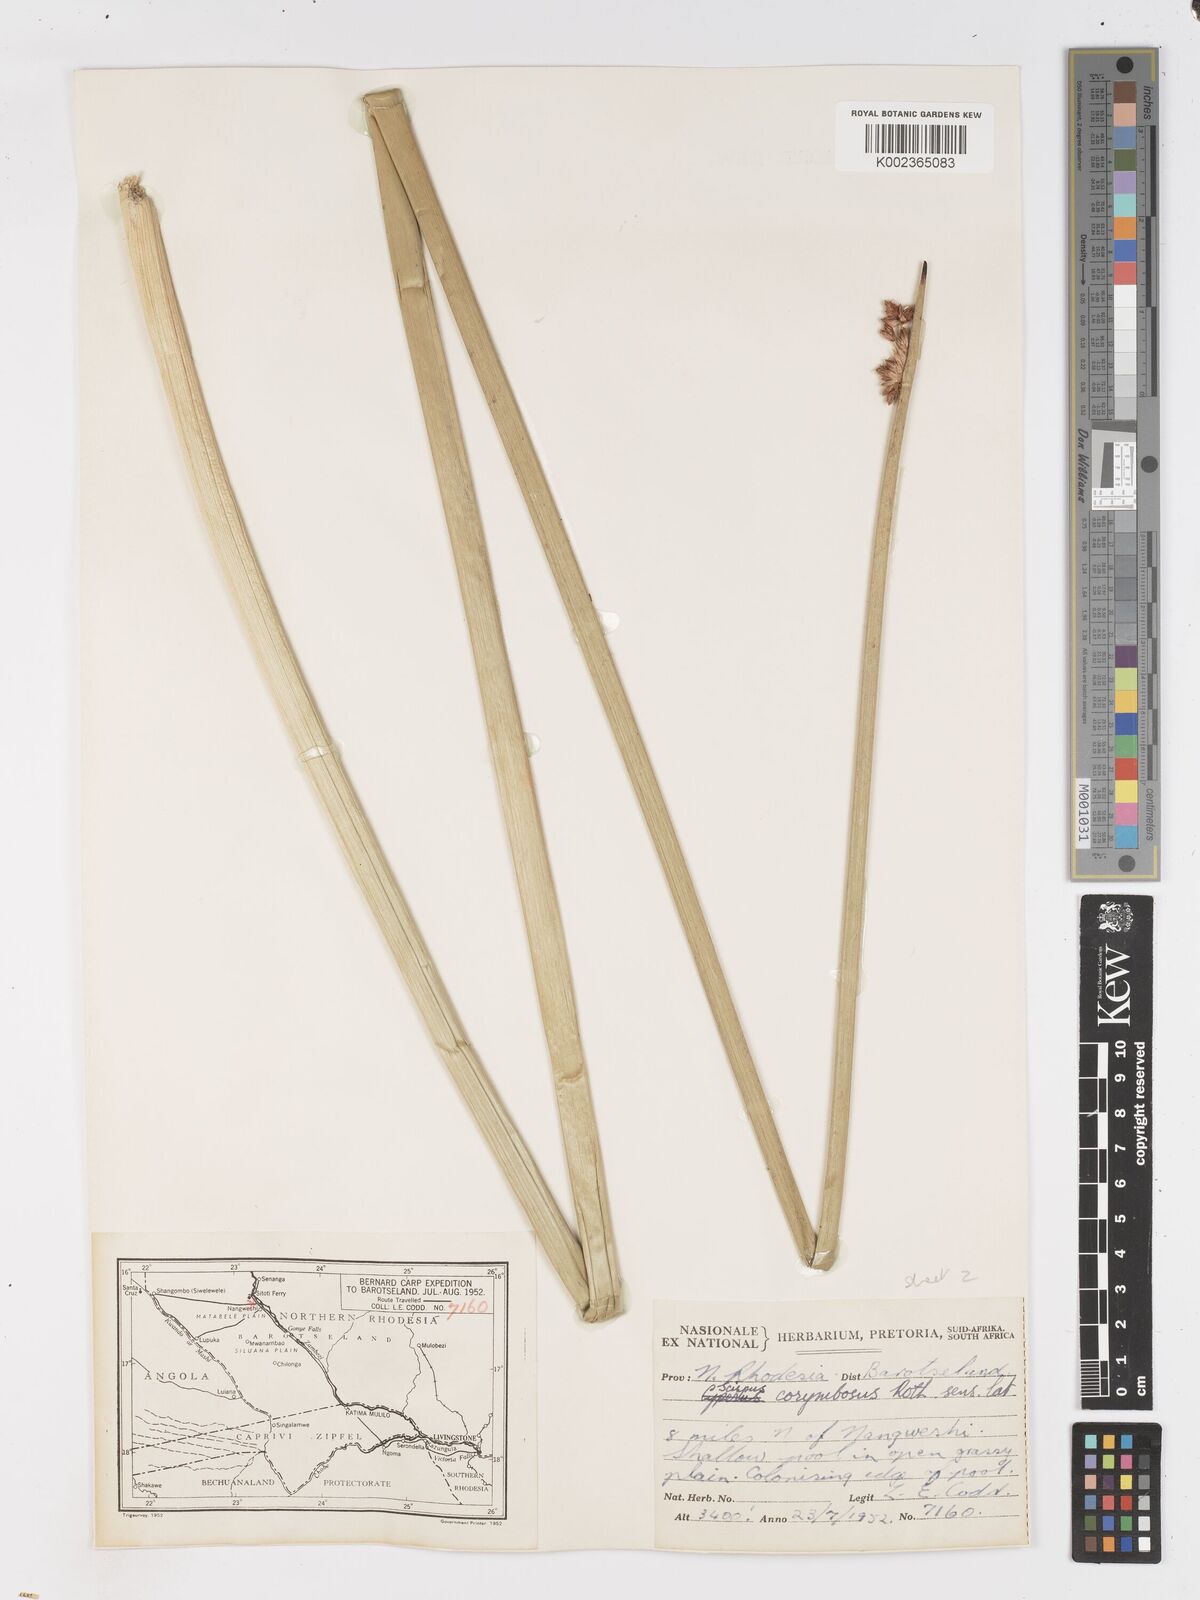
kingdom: Plantae
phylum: Tracheophyta
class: Liliopsida
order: Poales
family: Cyperaceae
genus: Schoenoplectiella
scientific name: Schoenoplectiella corymbosa
